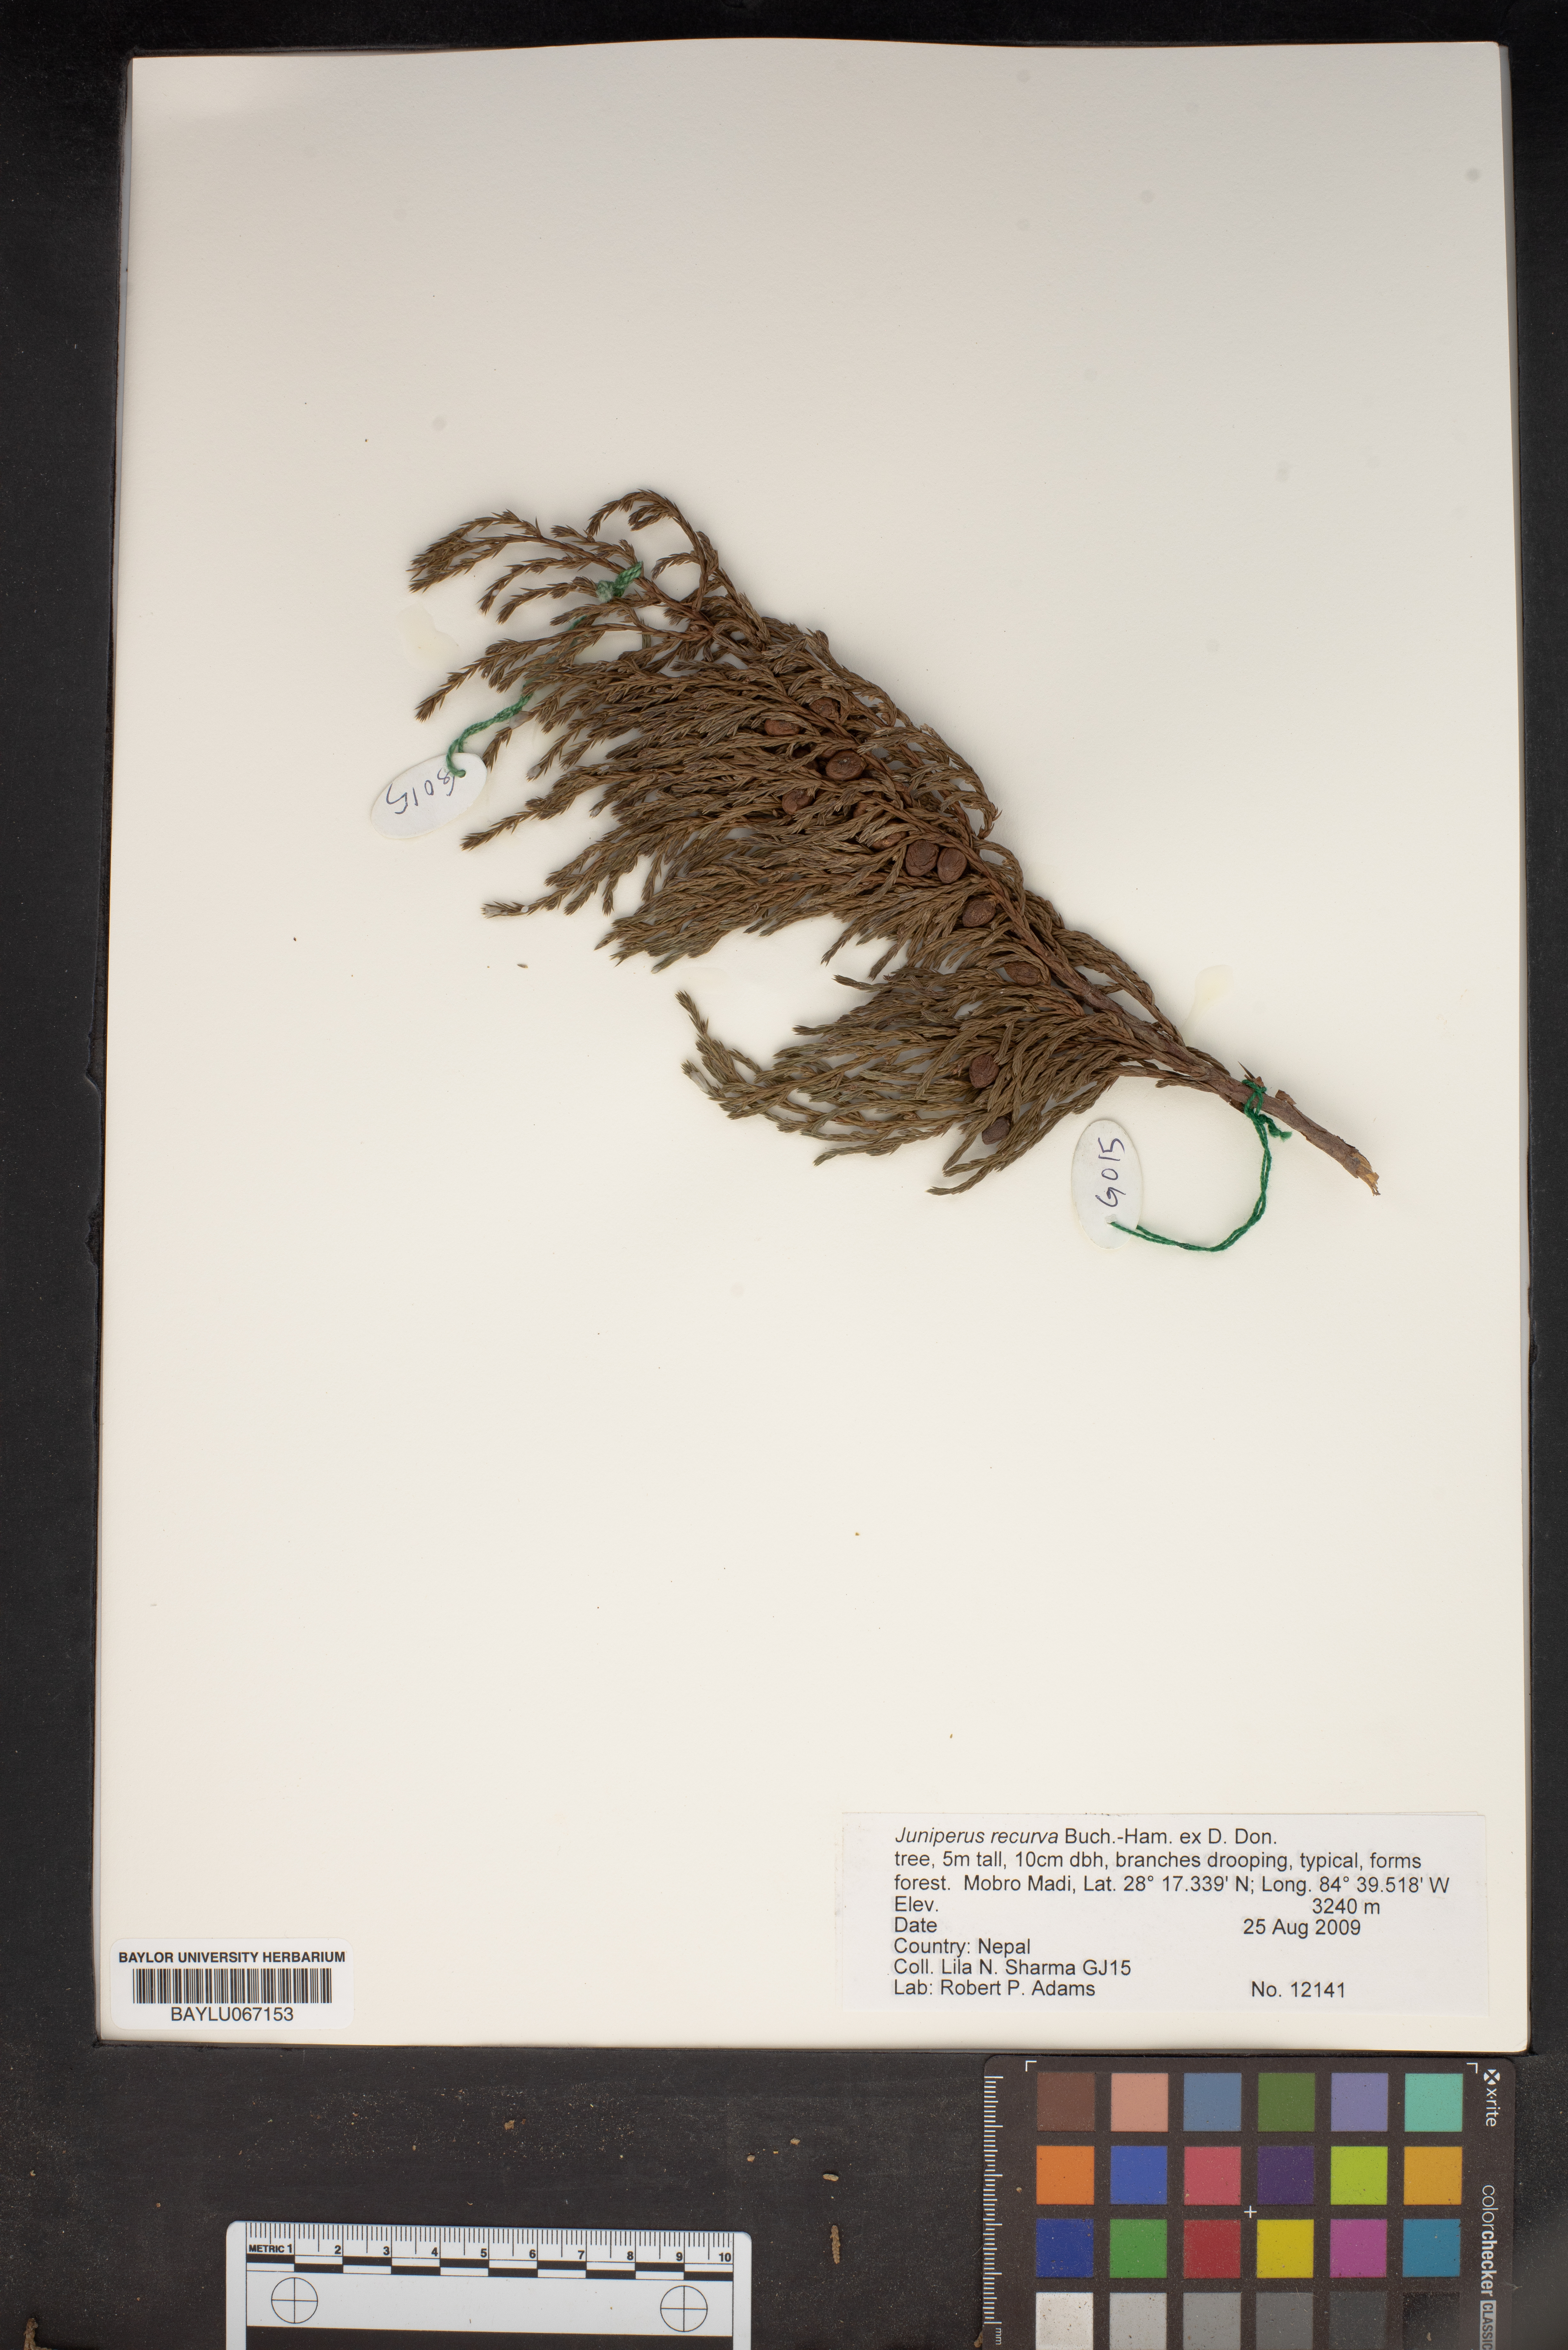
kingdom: Plantae
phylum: Tracheophyta
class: Pinopsida
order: Pinales
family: Cupressaceae
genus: Juniperus
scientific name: Juniperus recurva
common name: Drooping juniper
